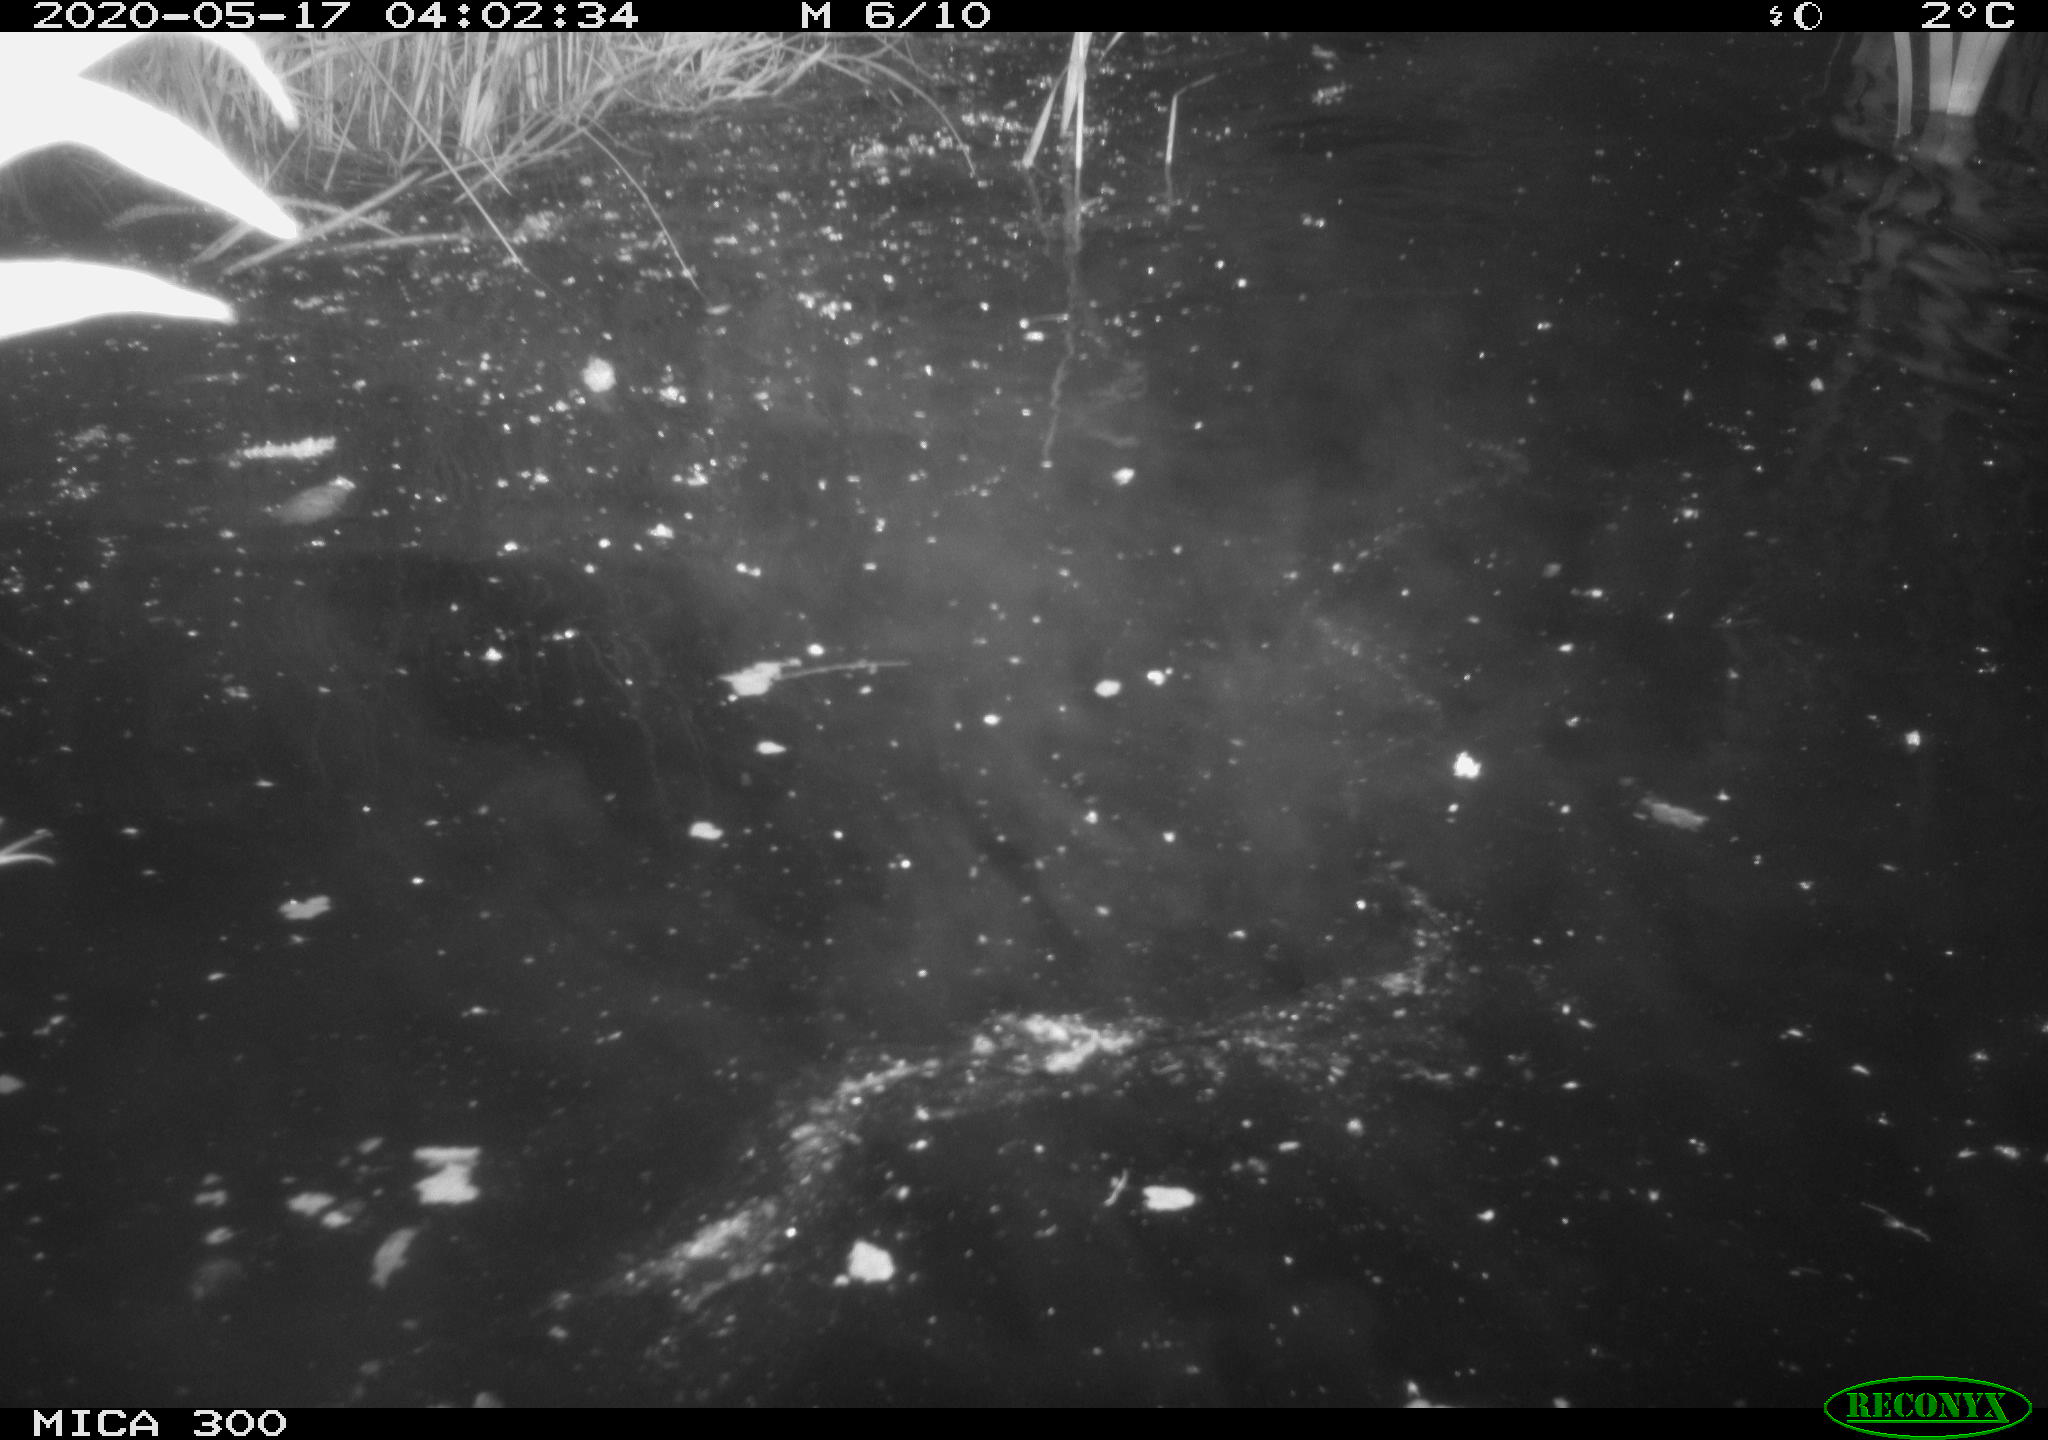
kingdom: Animalia
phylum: Chordata
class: Mammalia
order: Rodentia
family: Castoridae
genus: Castor
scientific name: Castor fiber
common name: Eurasian beaver
